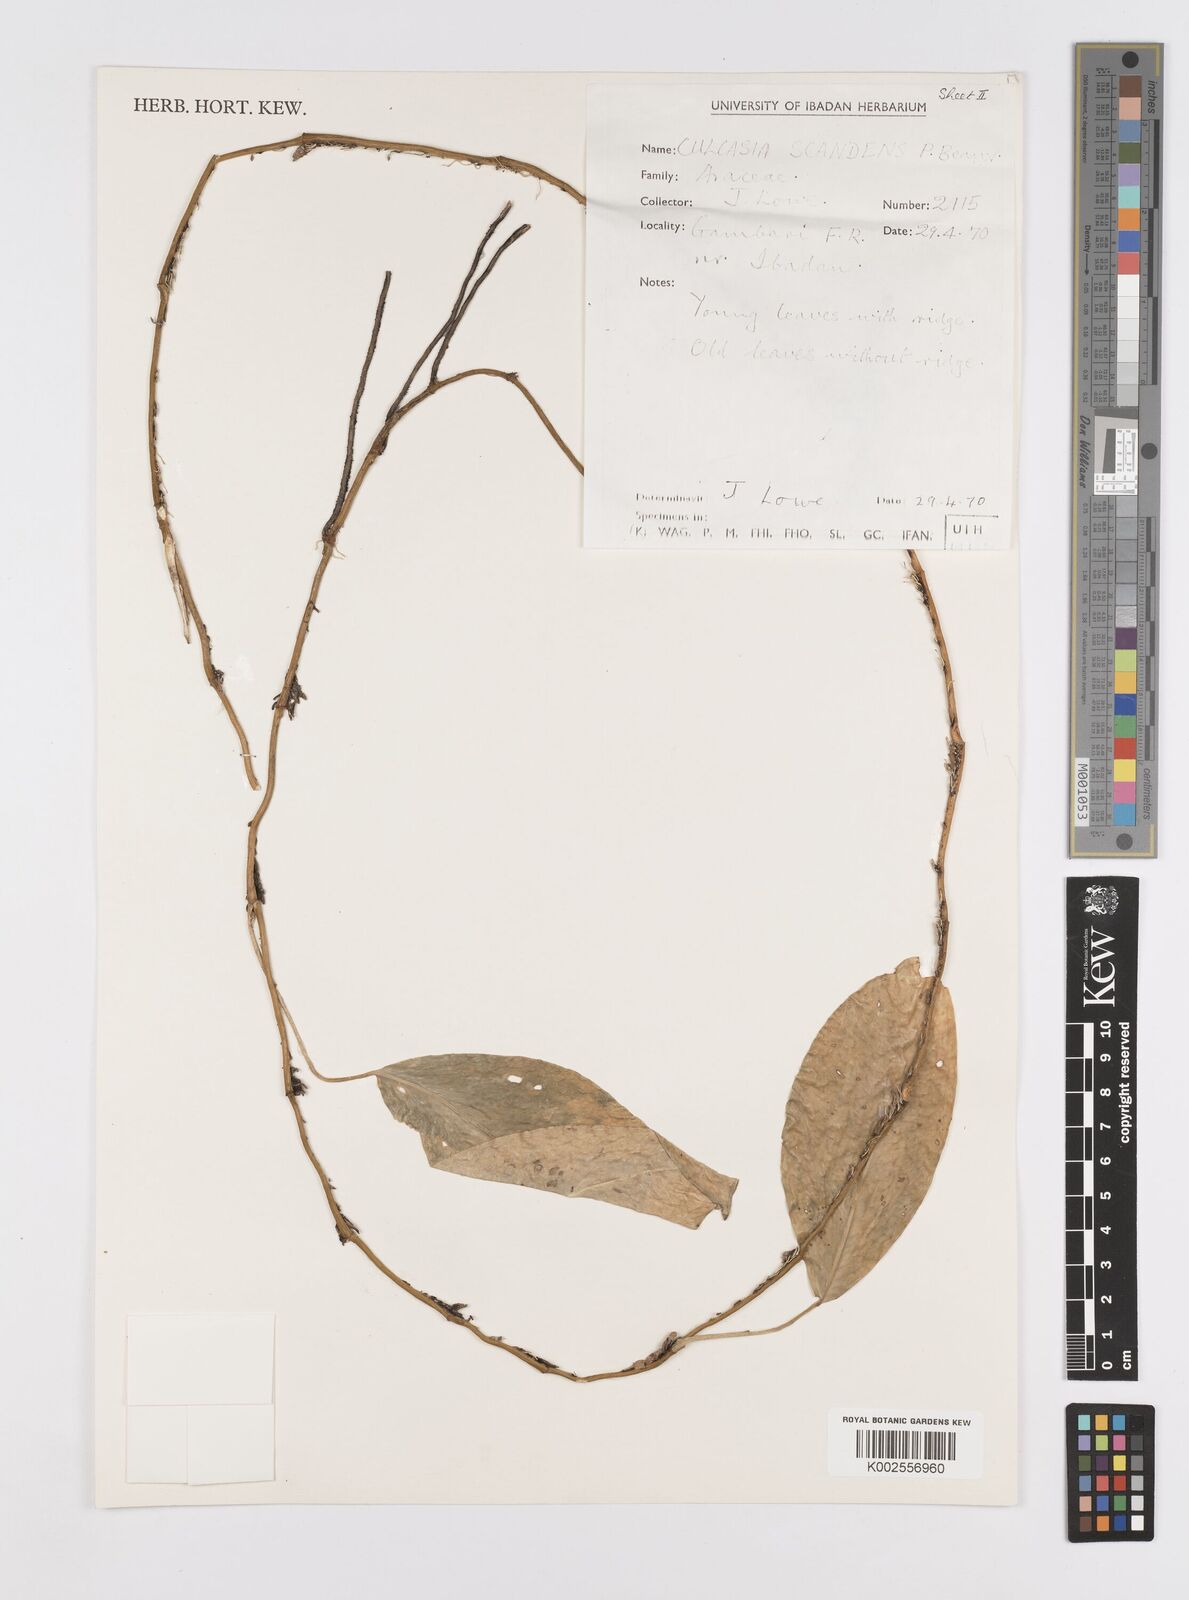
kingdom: Plantae
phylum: Tracheophyta
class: Liliopsida
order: Alismatales
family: Araceae
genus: Culcasia
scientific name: Culcasia scandens
